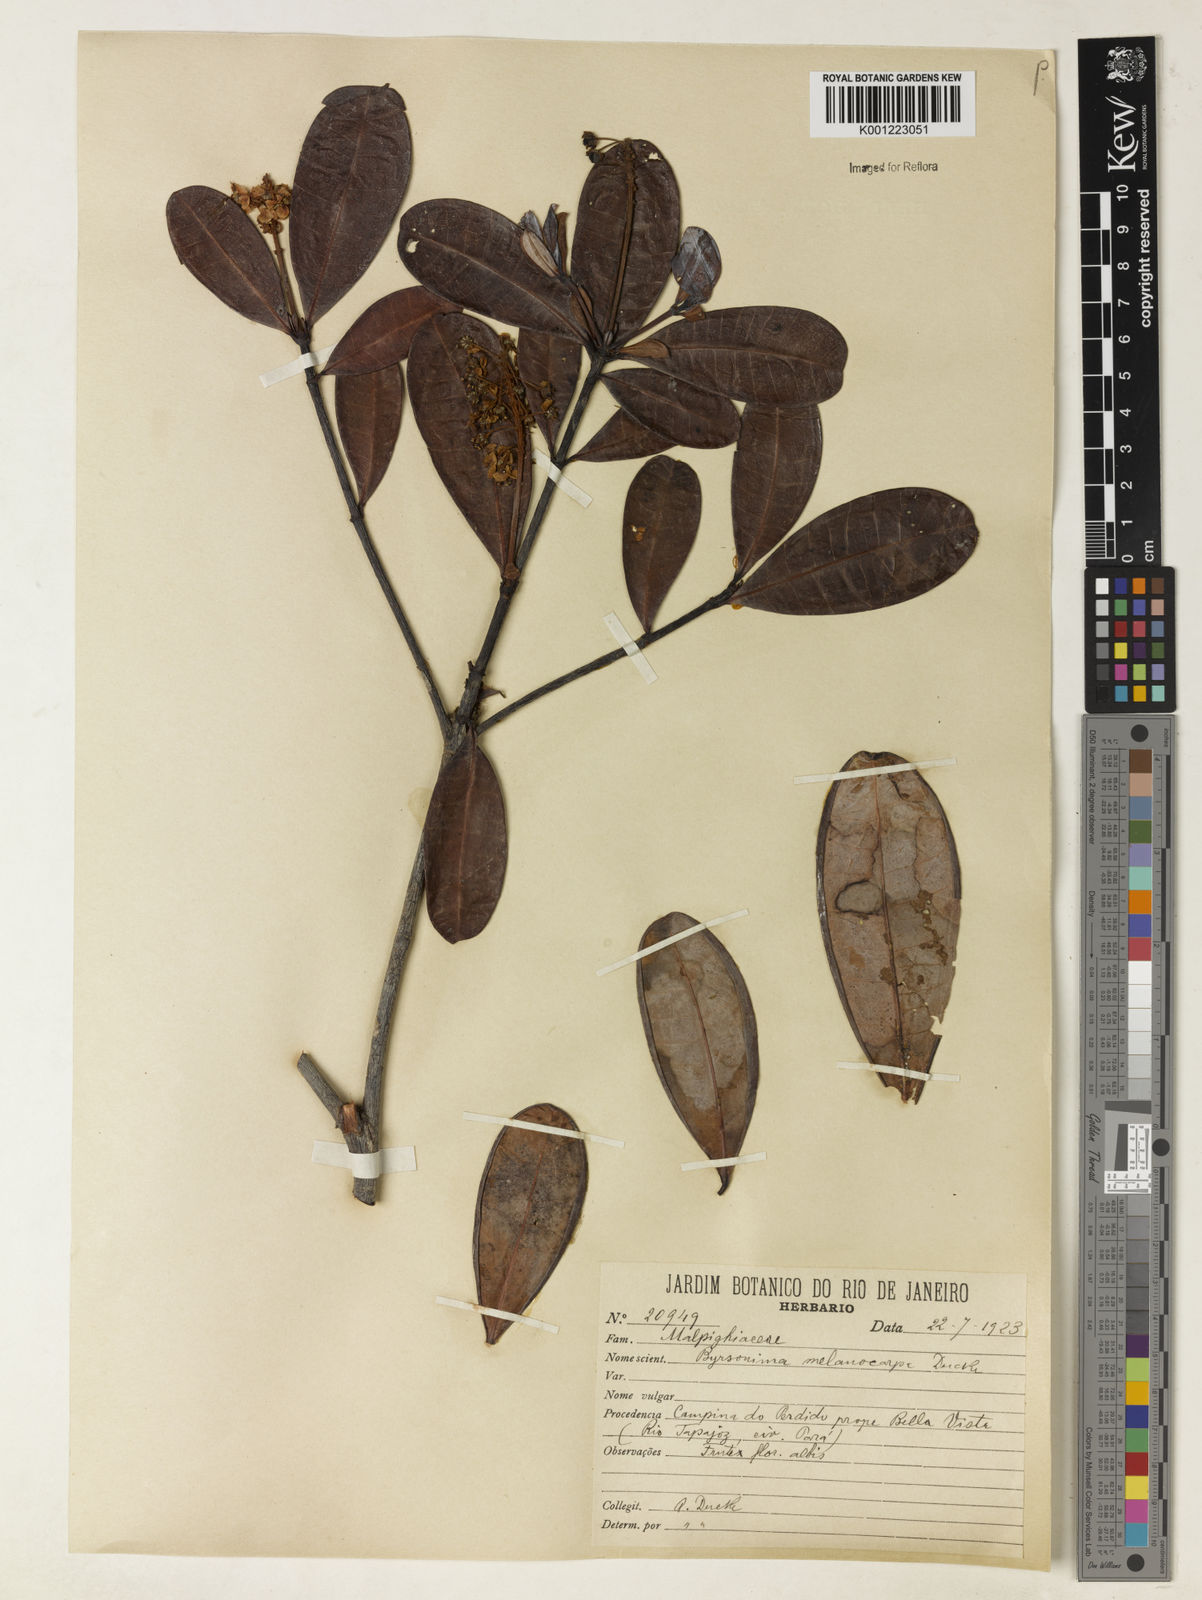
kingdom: Plantae
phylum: Tracheophyta
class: Magnoliopsida
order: Malpighiales
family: Malpighiaceae
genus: Byrsonima
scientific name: Byrsonima melanocarpa
